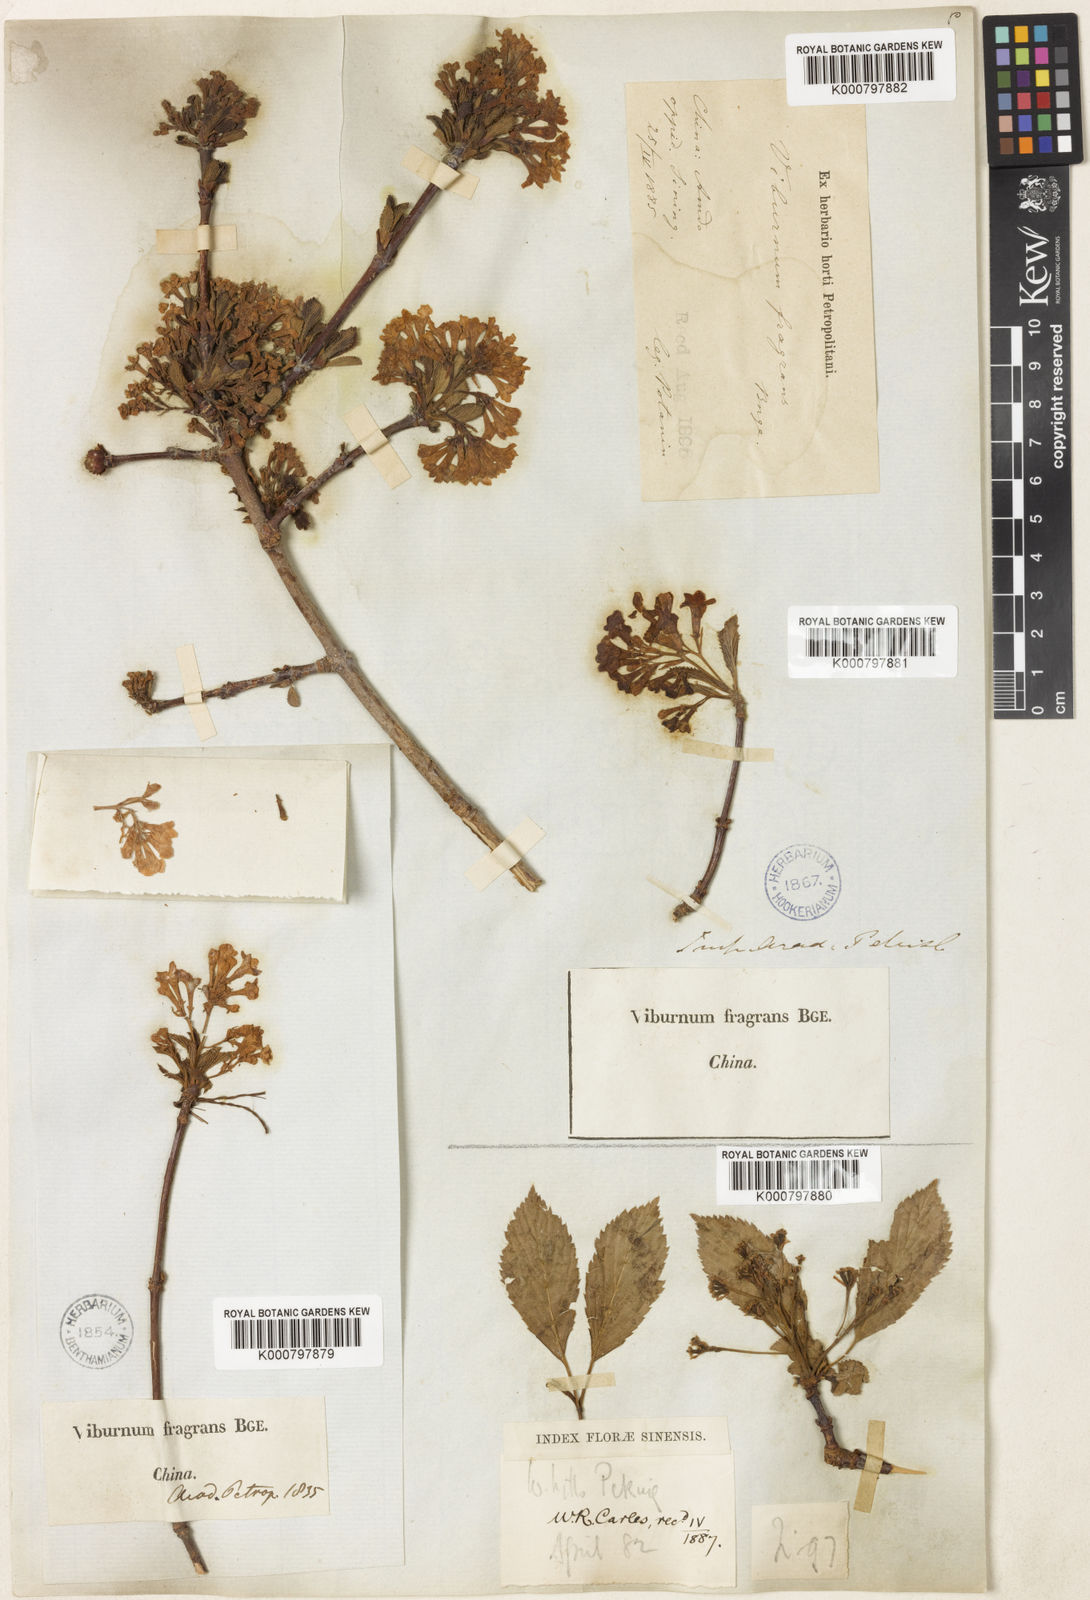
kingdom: Plantae
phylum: Tracheophyta
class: Magnoliopsida
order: Dipsacales
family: Viburnaceae
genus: Viburnum
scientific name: Viburnum farreri
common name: Farrer's viburnum
